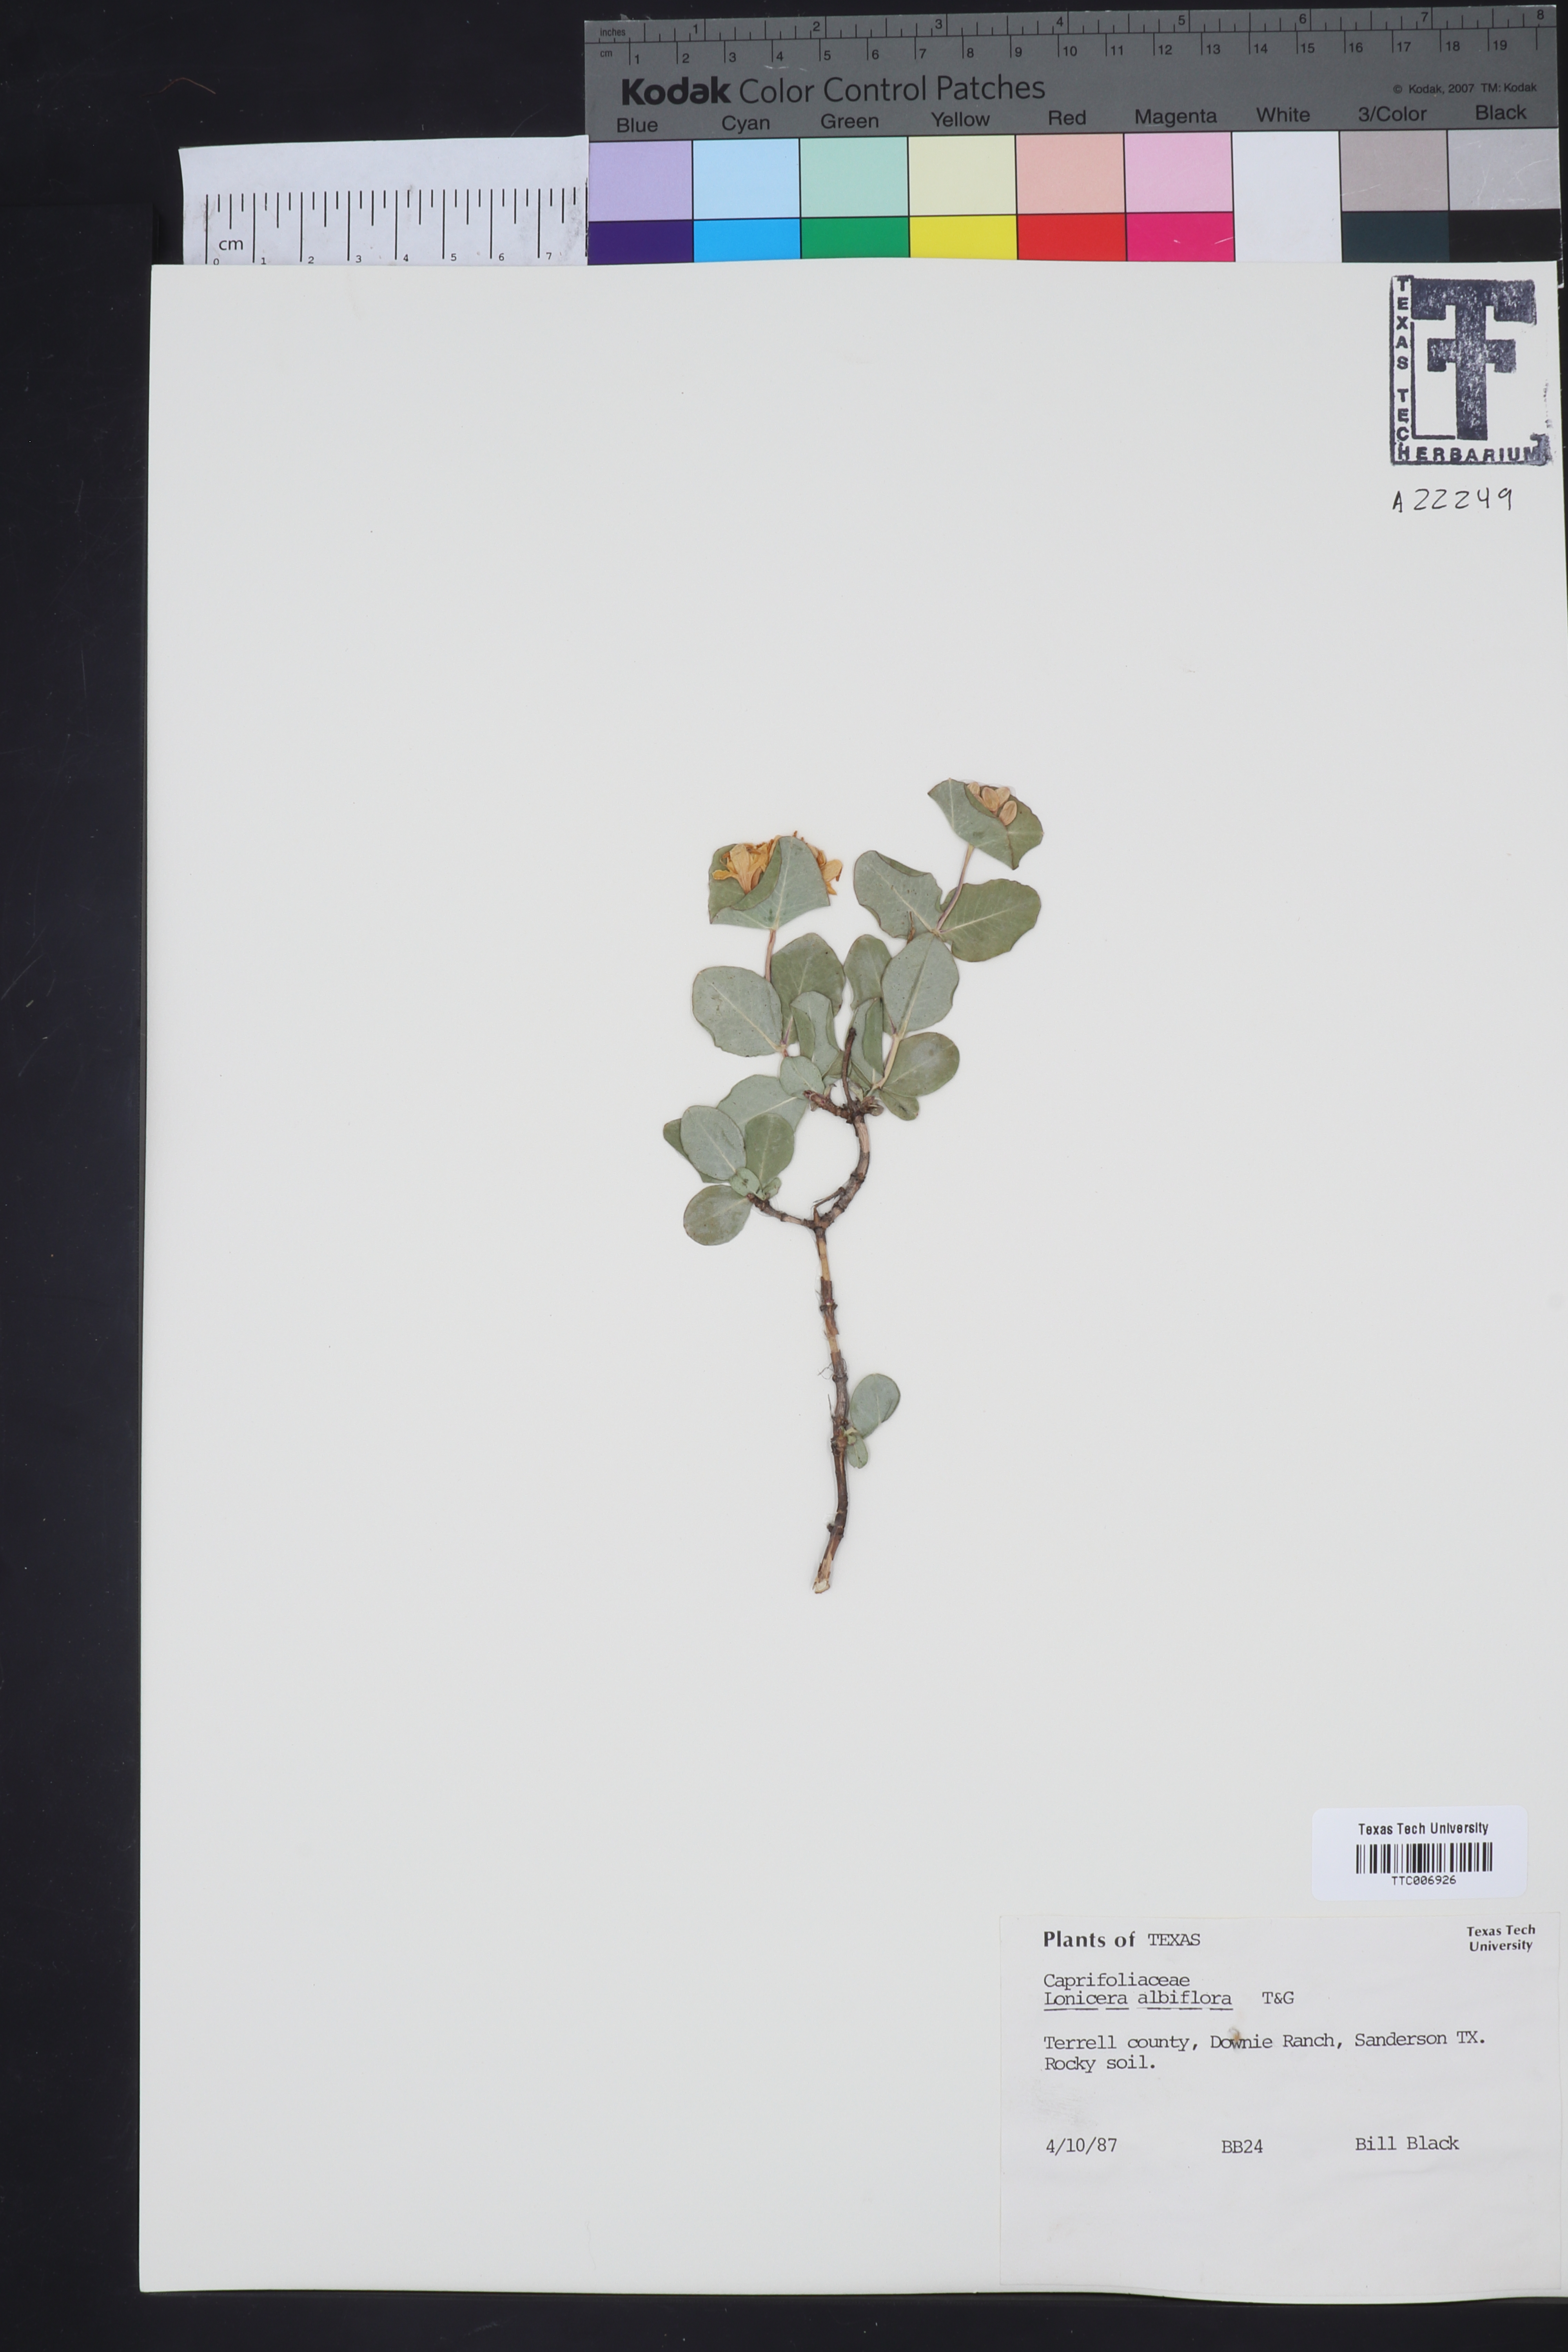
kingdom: Plantae
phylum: Tracheophyta
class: Magnoliopsida
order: Dipsacales
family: Caprifoliaceae
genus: Lonicera
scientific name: Lonicera albiflora
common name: White honeysuckle
